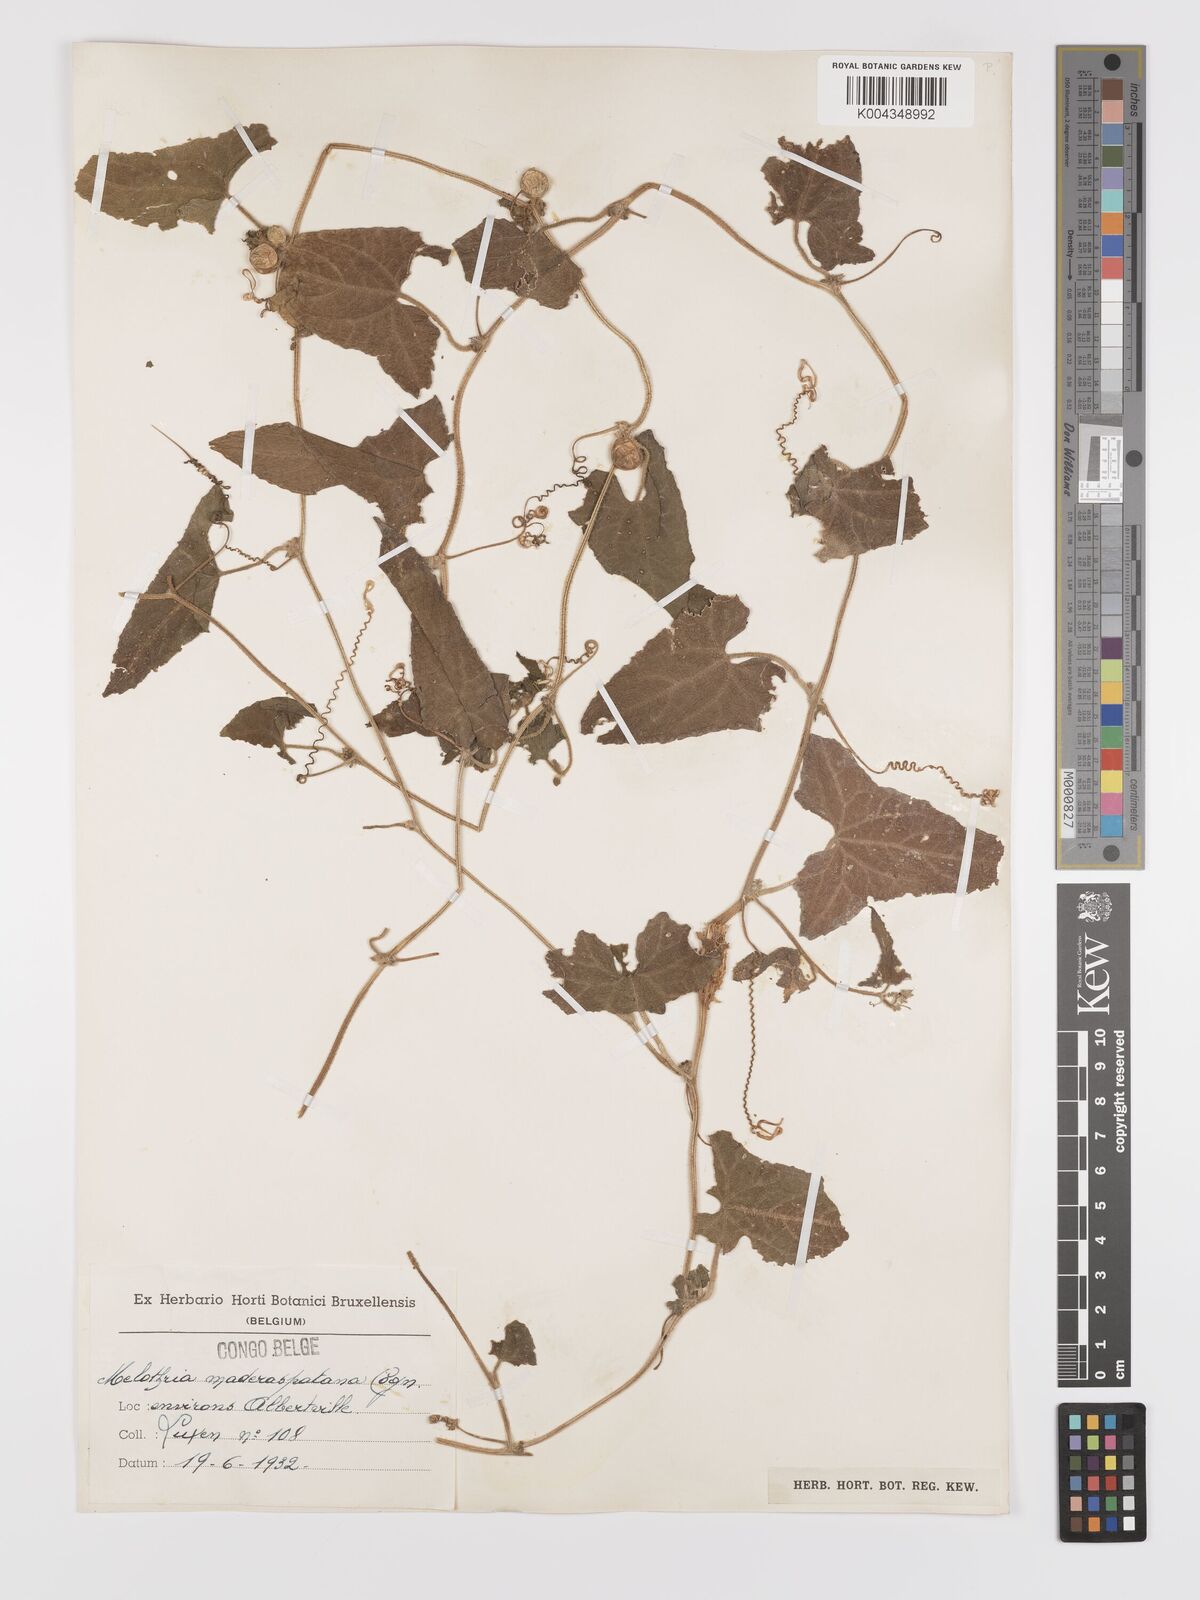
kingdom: Plantae
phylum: Tracheophyta
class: Magnoliopsida
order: Cucurbitales
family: Cucurbitaceae
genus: Cucumis
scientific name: Cucumis maderaspatanus
